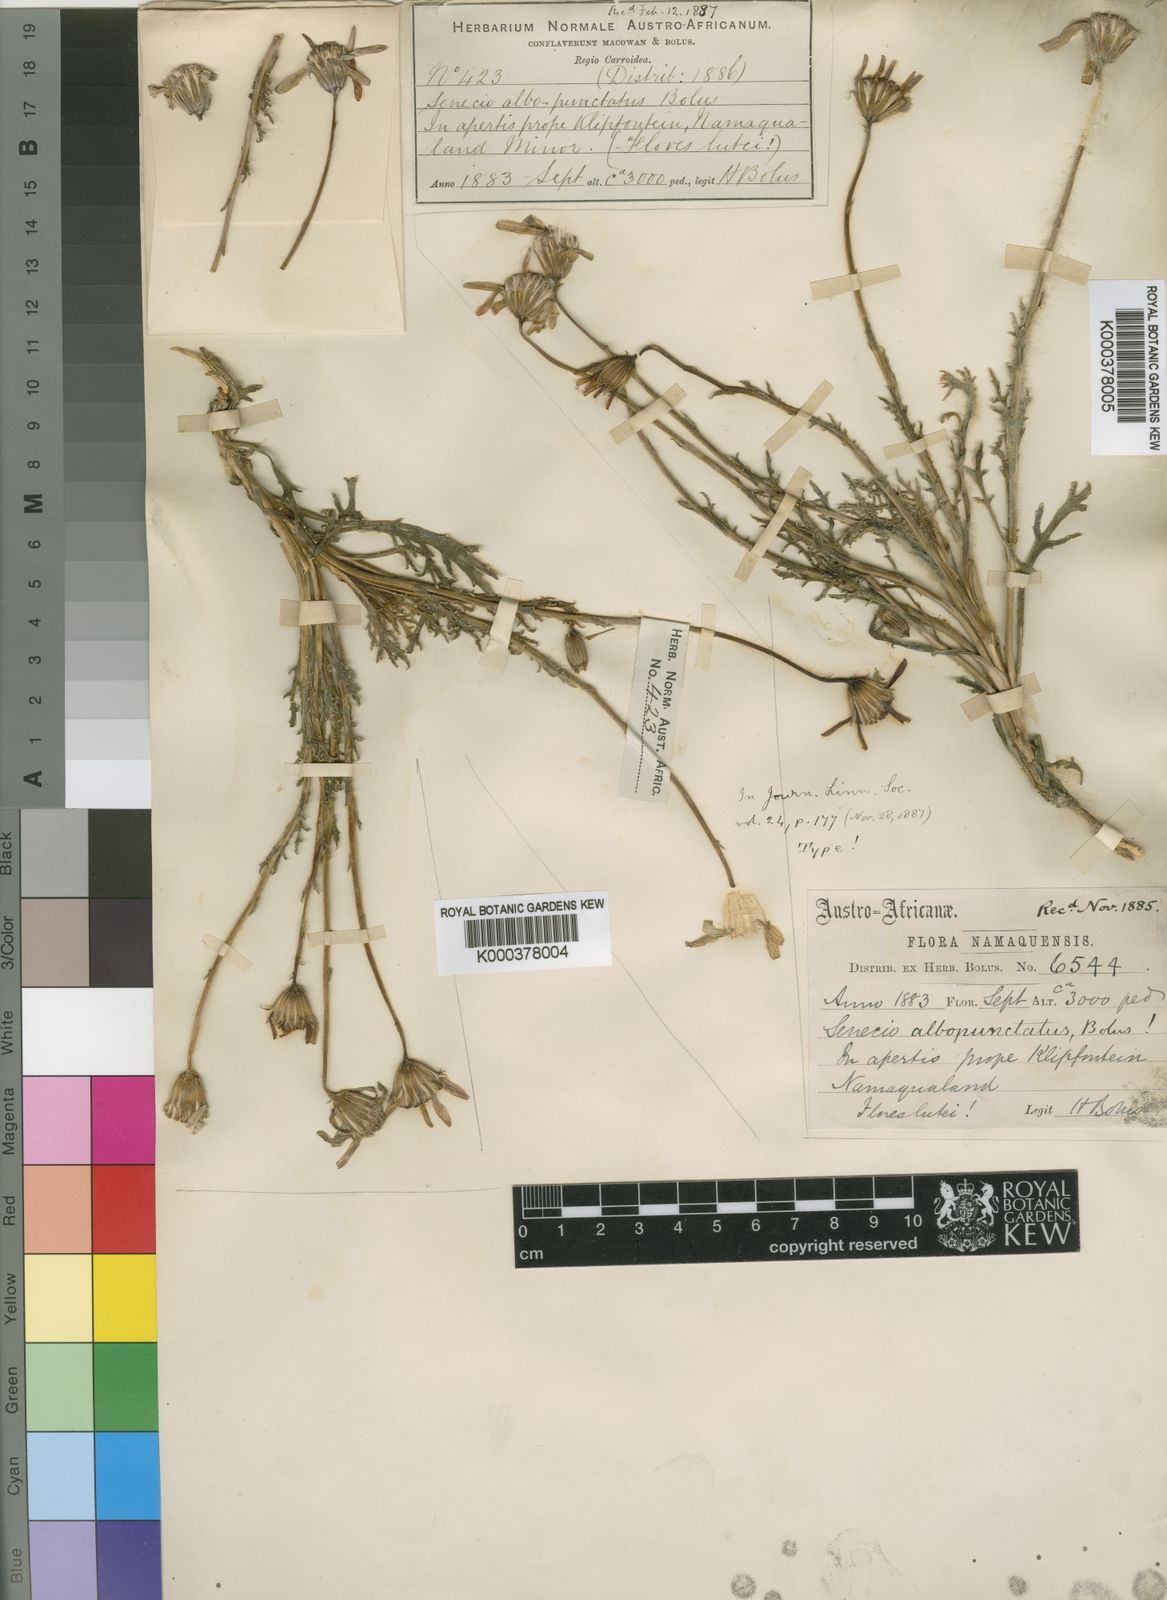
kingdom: Plantae
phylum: Tracheophyta
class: Magnoliopsida
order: Asterales
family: Asteraceae
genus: Senecio
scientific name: Senecio albopunctatus
